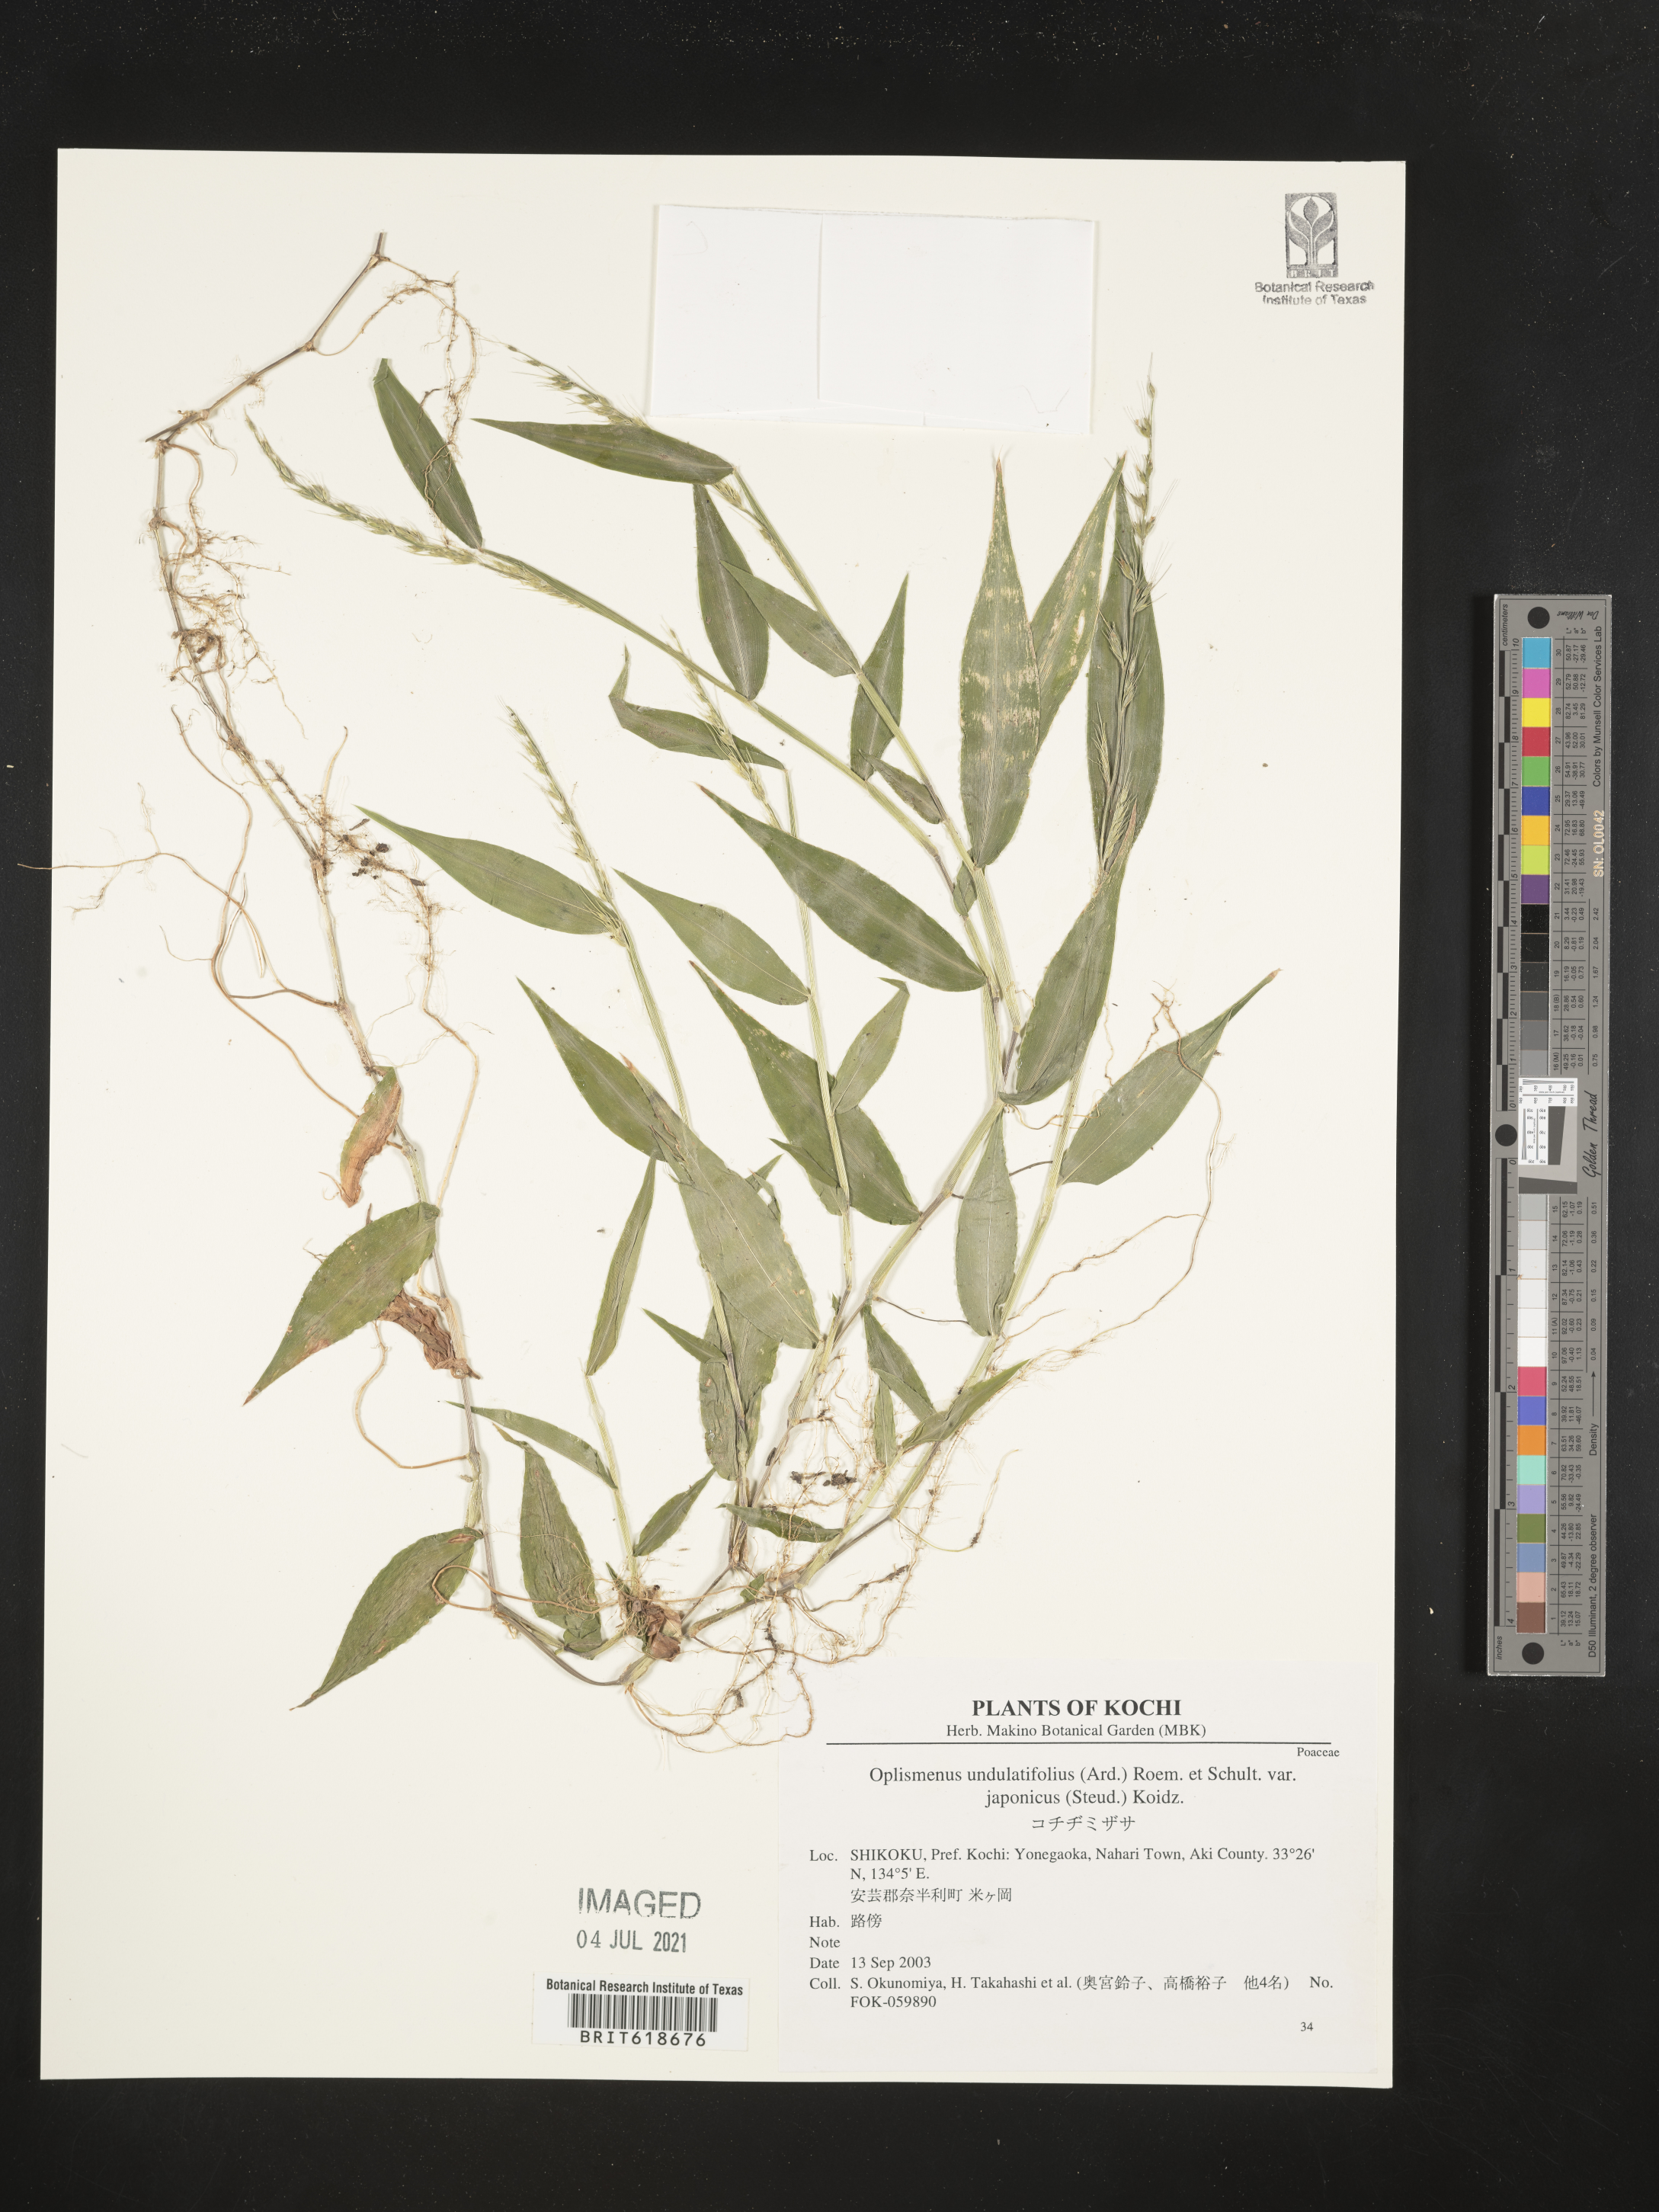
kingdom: Plantae
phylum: Tracheophyta
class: Liliopsida
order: Poales
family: Poaceae
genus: Oplismenus
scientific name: Oplismenus burmanni
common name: Burmann's basketgrass
